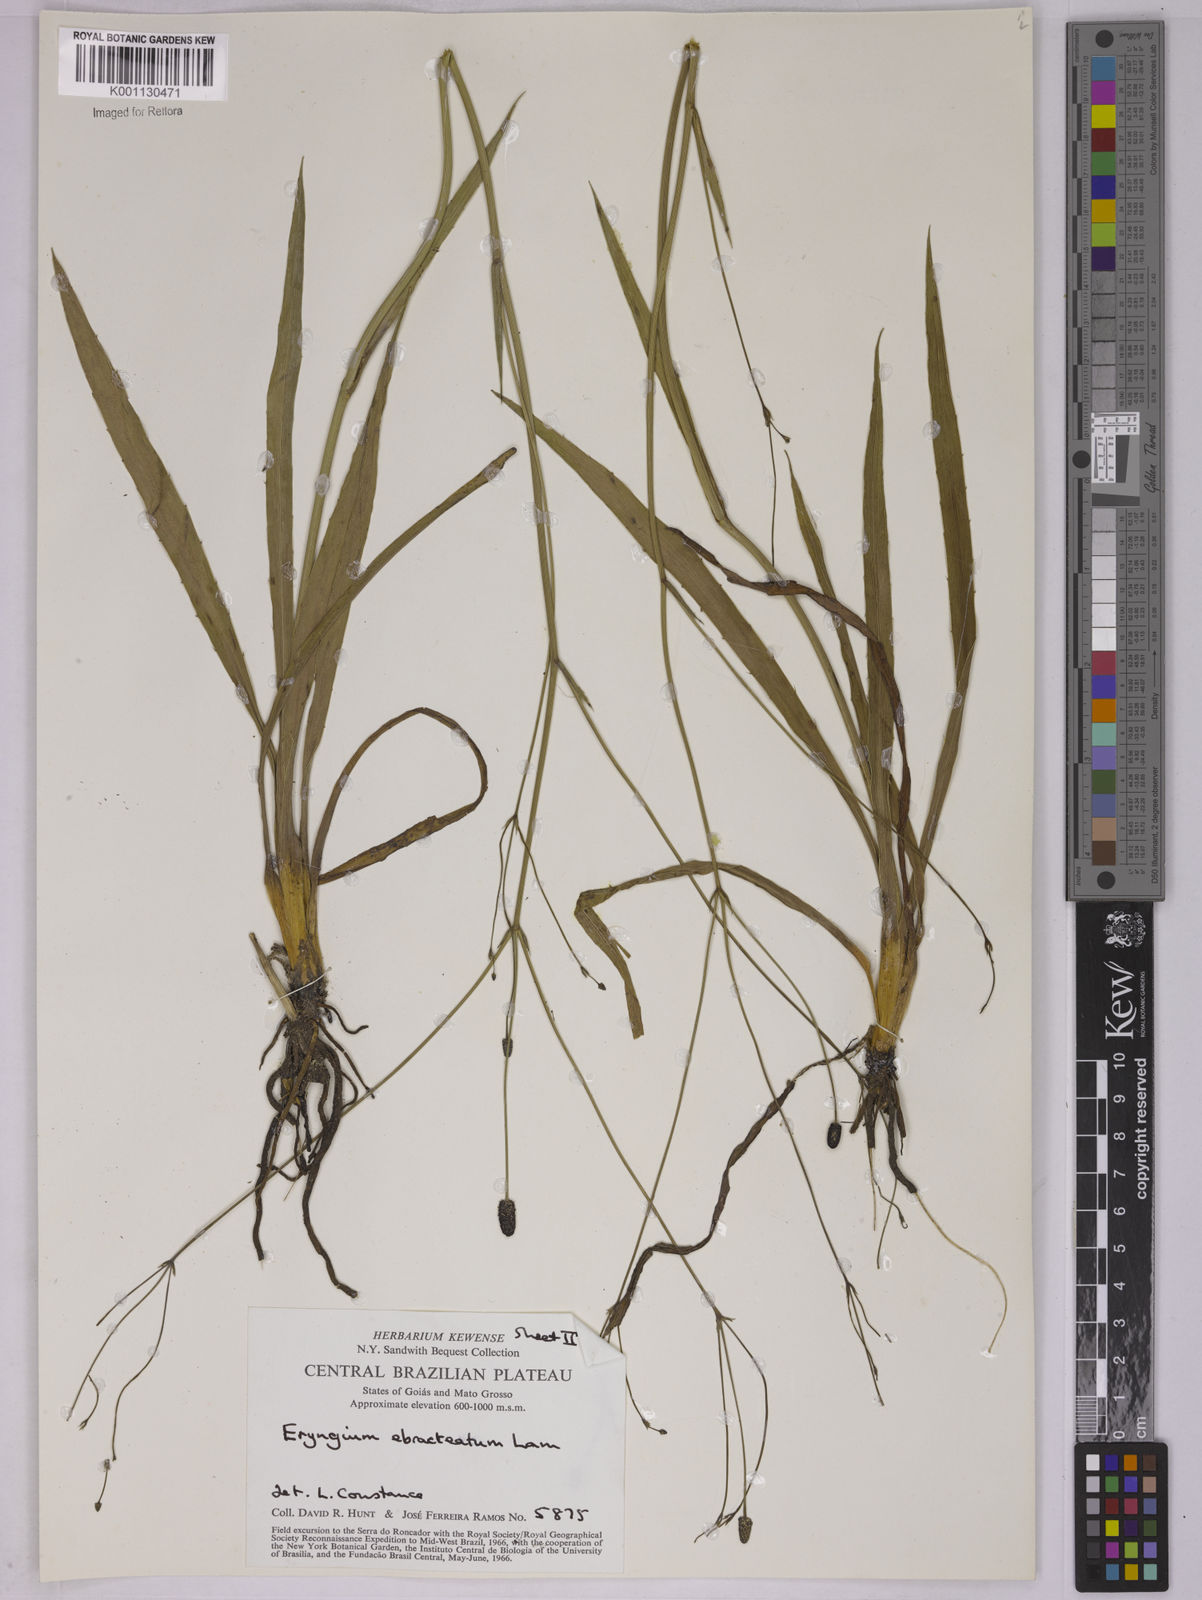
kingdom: Plantae
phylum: Tracheophyta
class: Magnoliopsida
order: Apiales
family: Apiaceae
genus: Eryngium
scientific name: Eryngium ebracteatum
